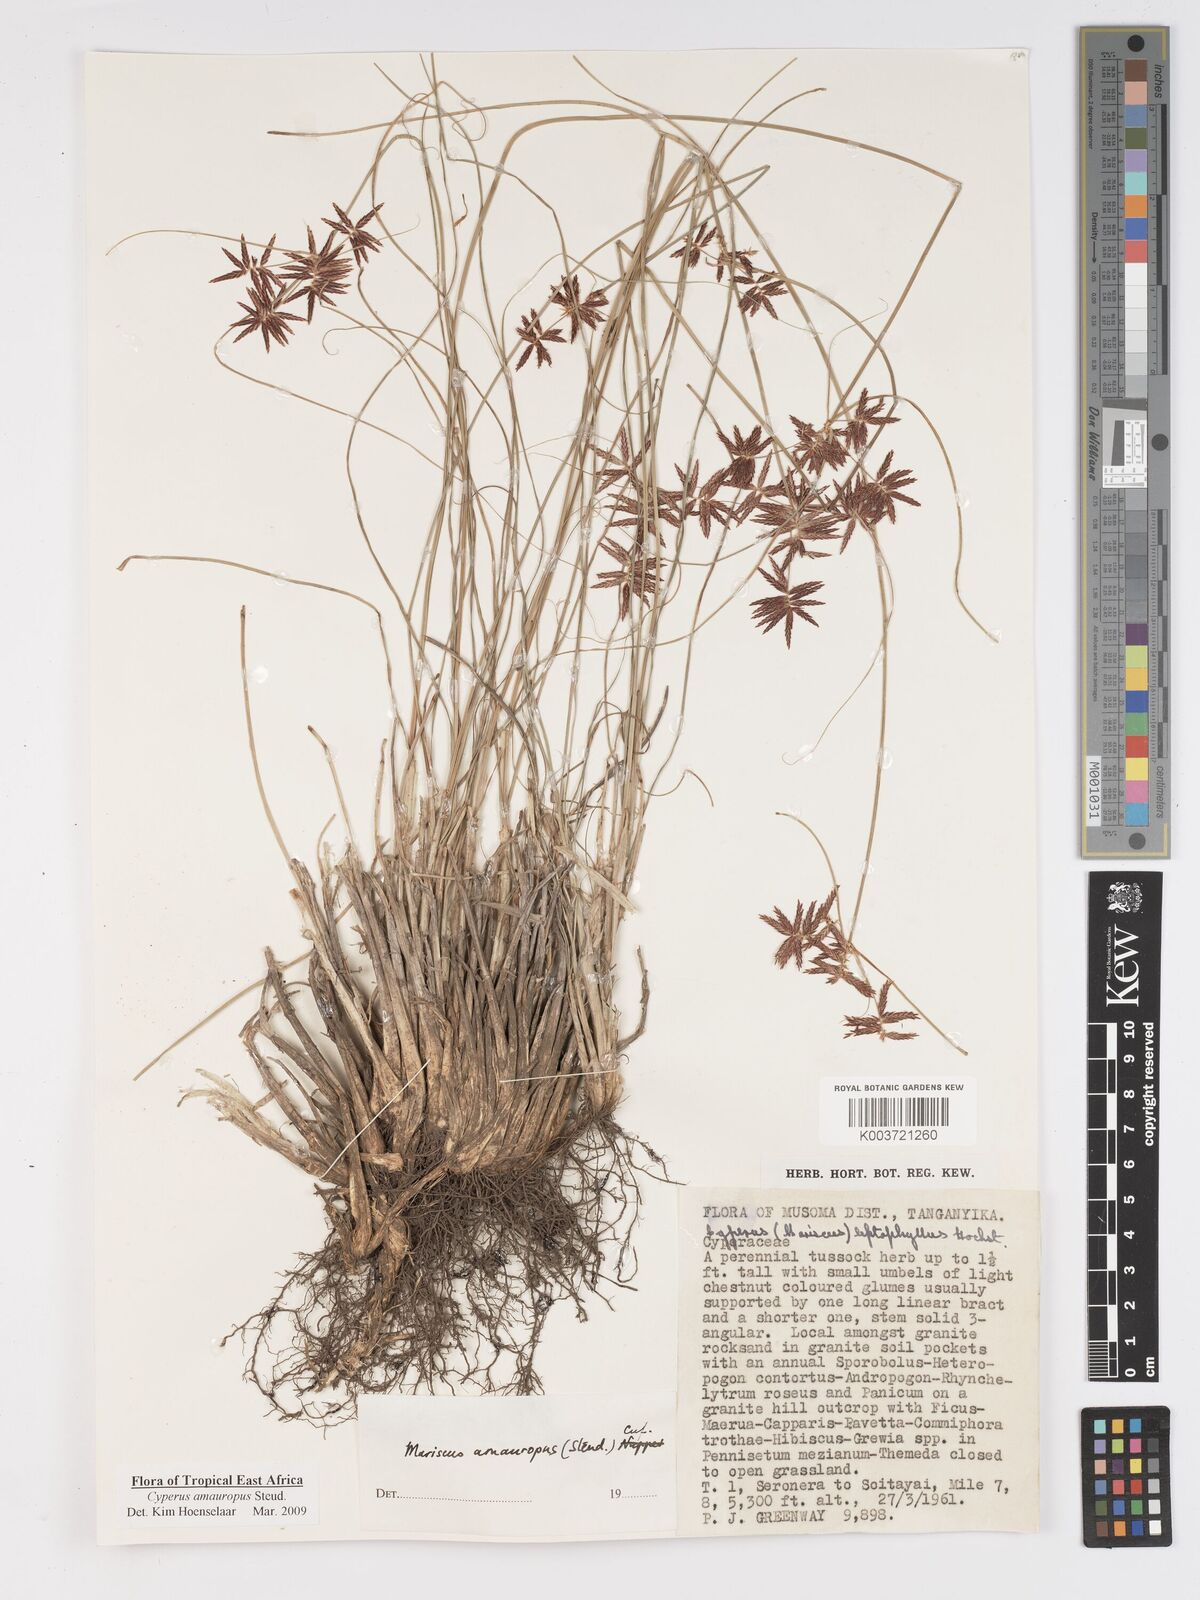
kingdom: Plantae
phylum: Tracheophyta
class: Liliopsida
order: Poales
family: Cyperaceae
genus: Cyperus
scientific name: Cyperus amauropus
